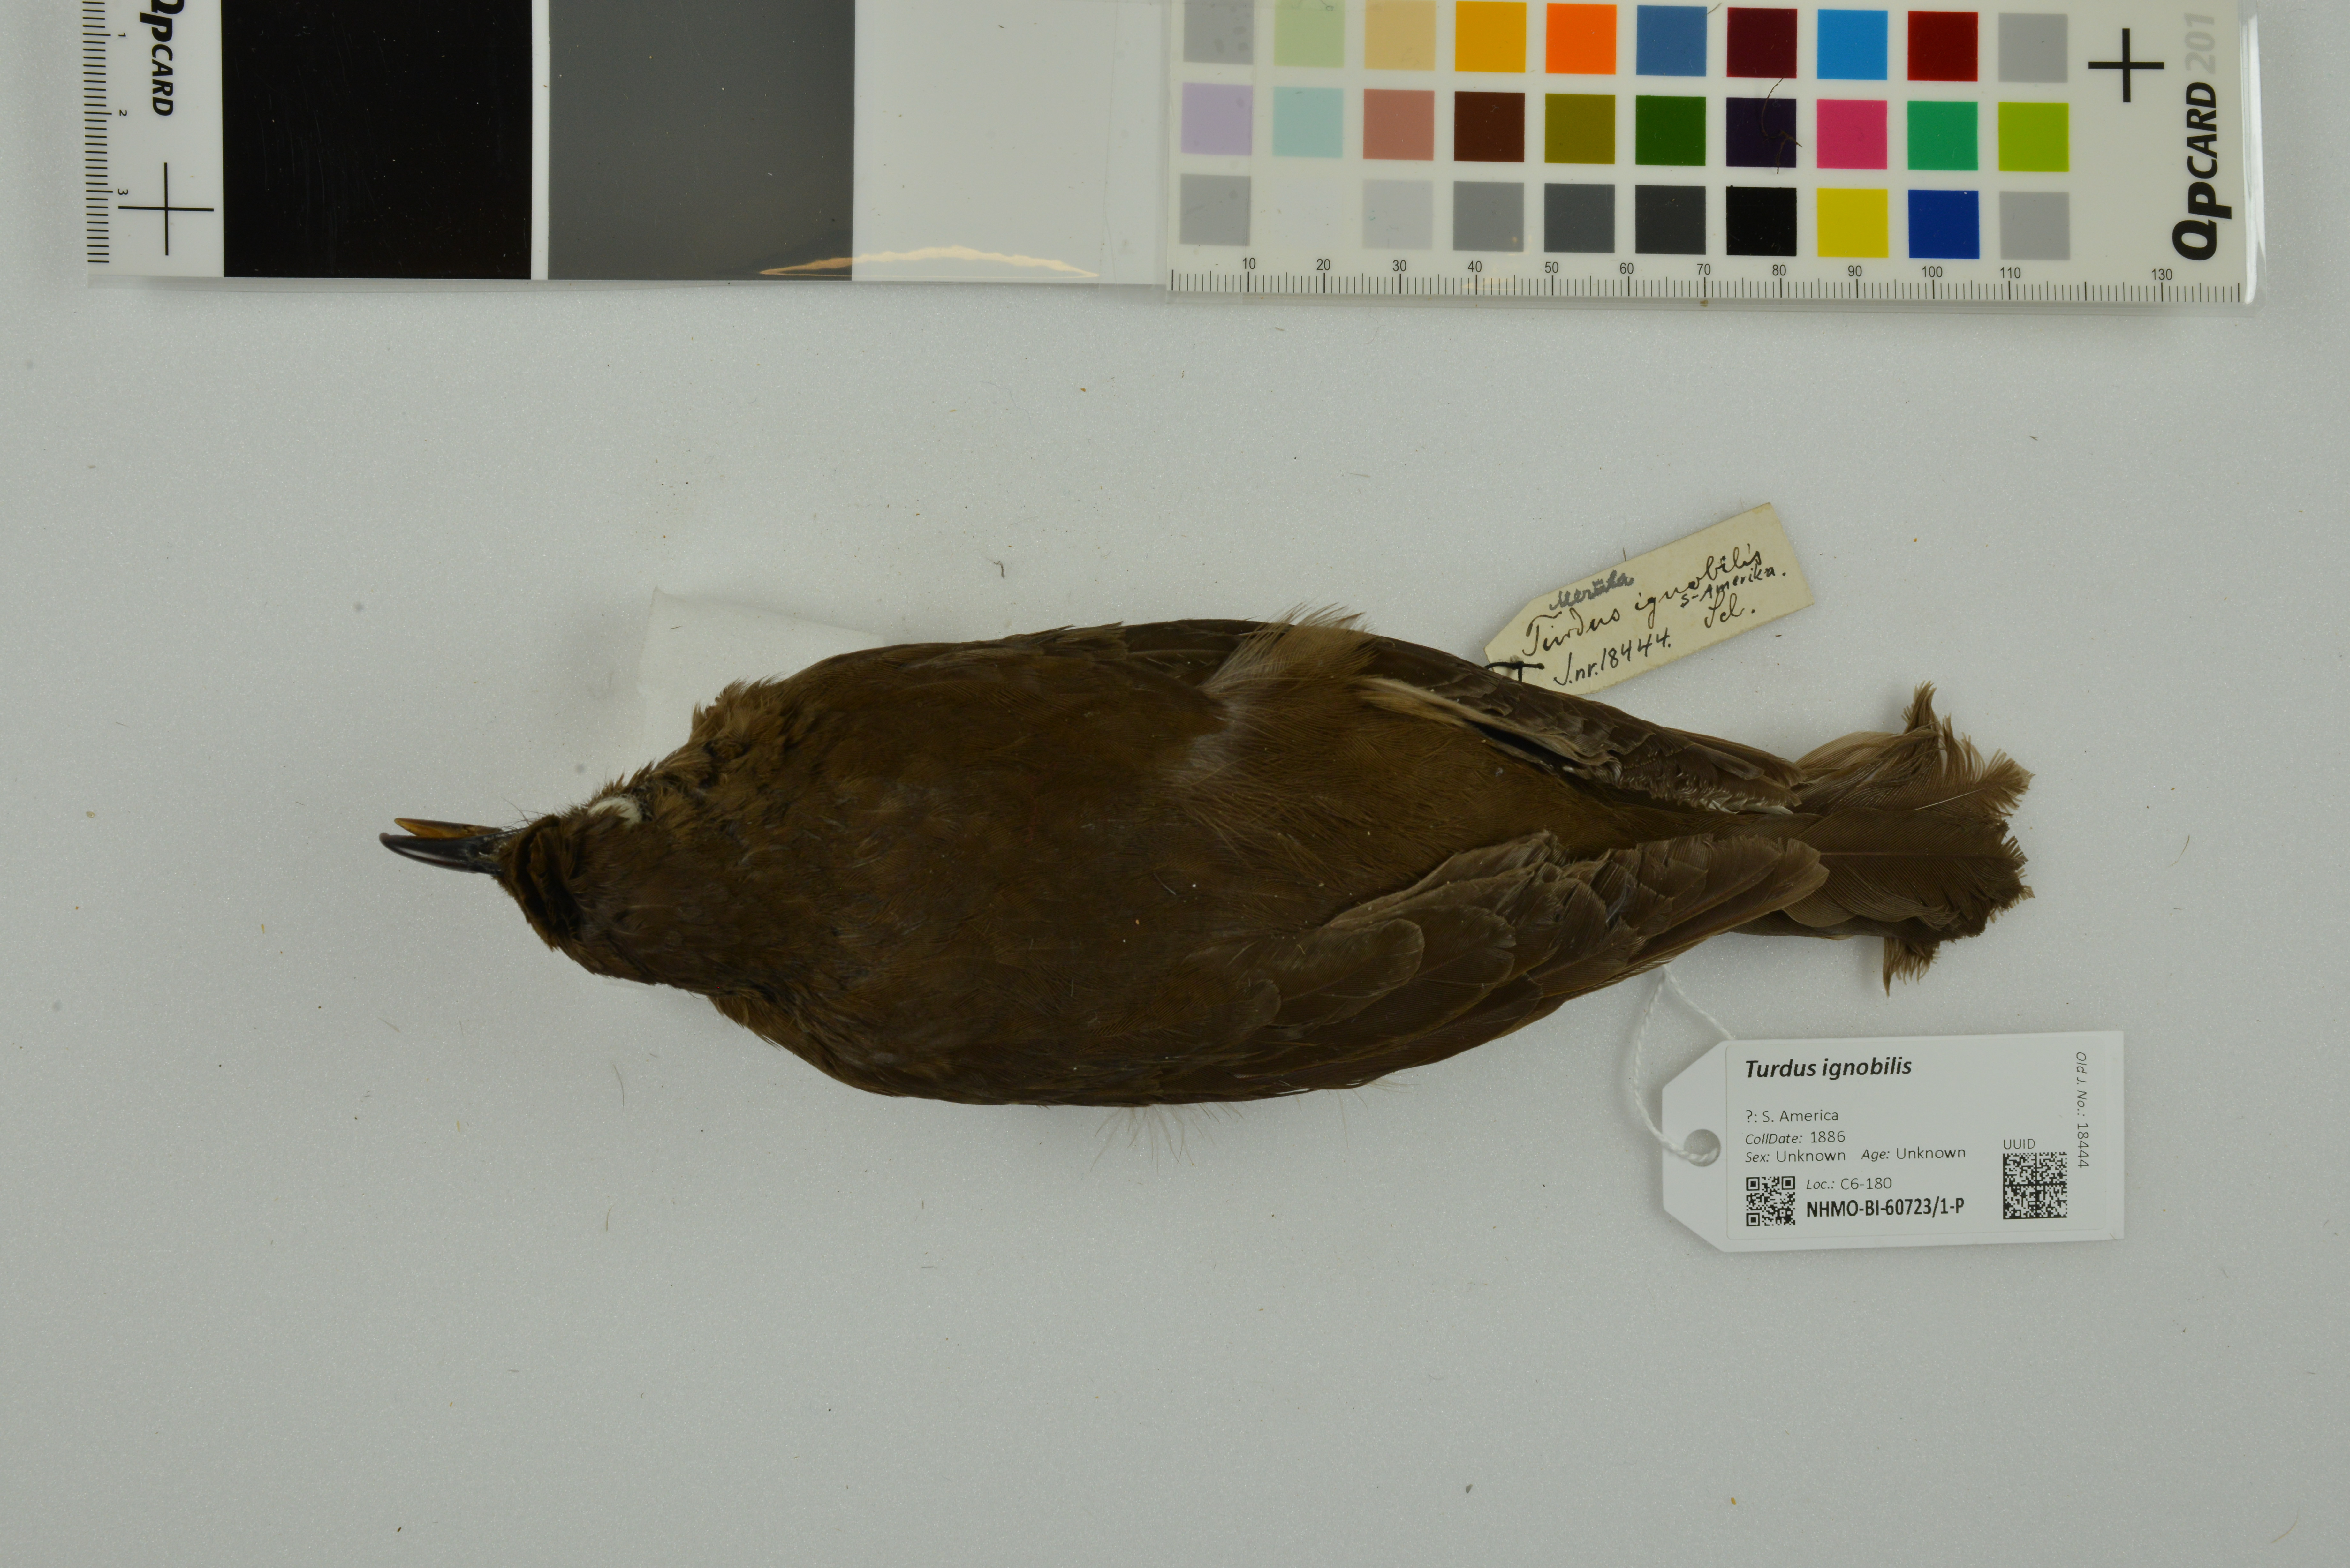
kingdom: Animalia
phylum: Chordata
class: Aves
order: Passeriformes
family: Turdidae
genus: Turdus
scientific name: Turdus ignobilis
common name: Black-billed thrush
